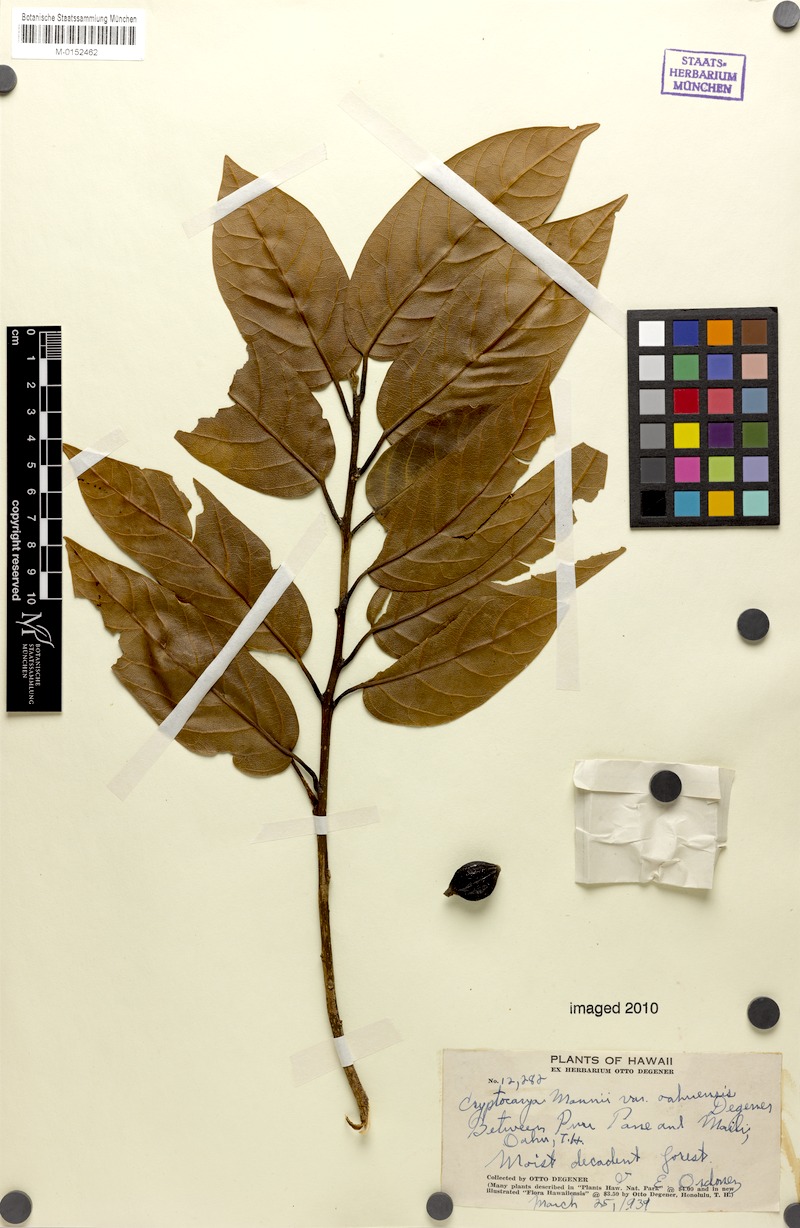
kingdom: Plantae
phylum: Tracheophyta
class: Magnoliopsida
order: Laurales
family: Lauraceae
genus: Cryptocarya
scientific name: Cryptocarya mannii
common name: Mann cryptocarya
